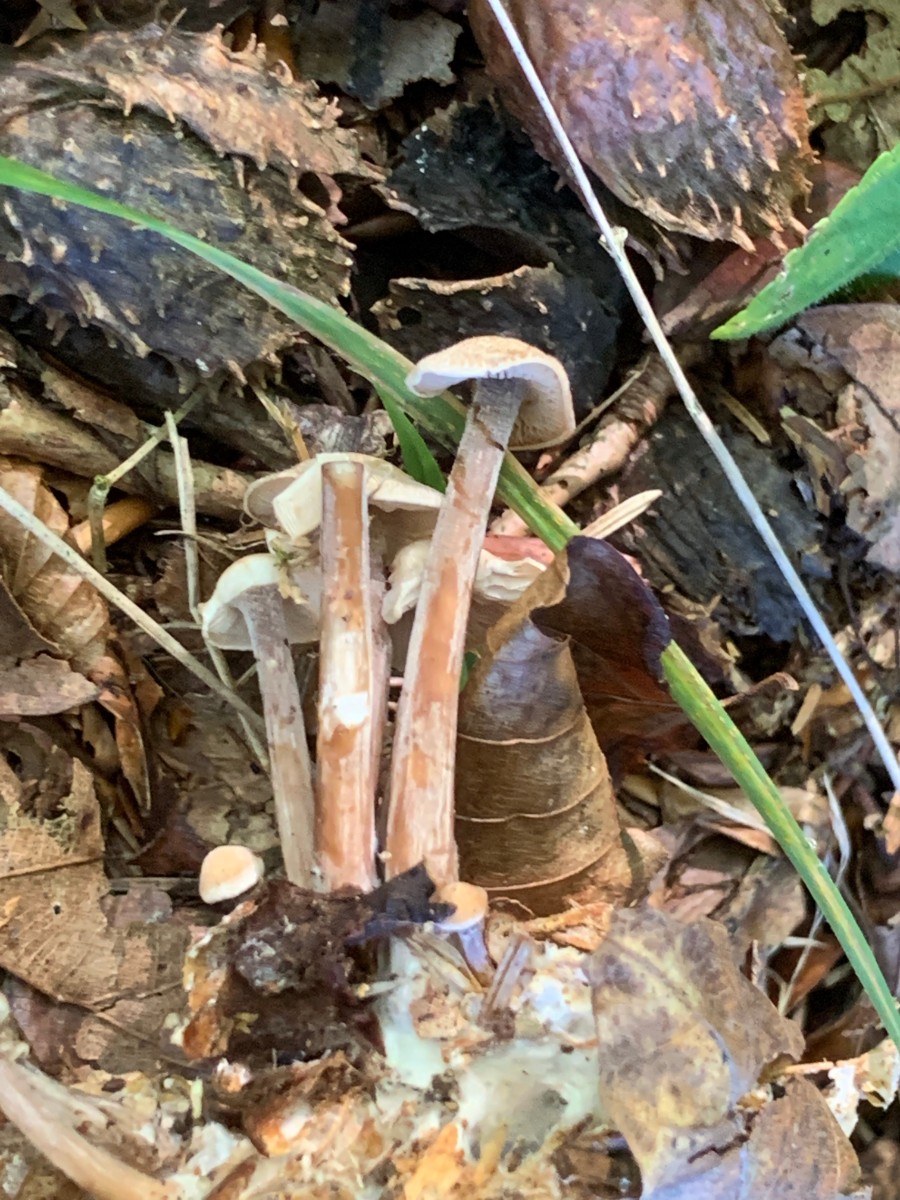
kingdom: Fungi
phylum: Basidiomycota
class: Agaricomycetes
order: Agaricales
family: Omphalotaceae
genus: Collybiopsis
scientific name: Collybiopsis confluens
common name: knippe-fladhat
